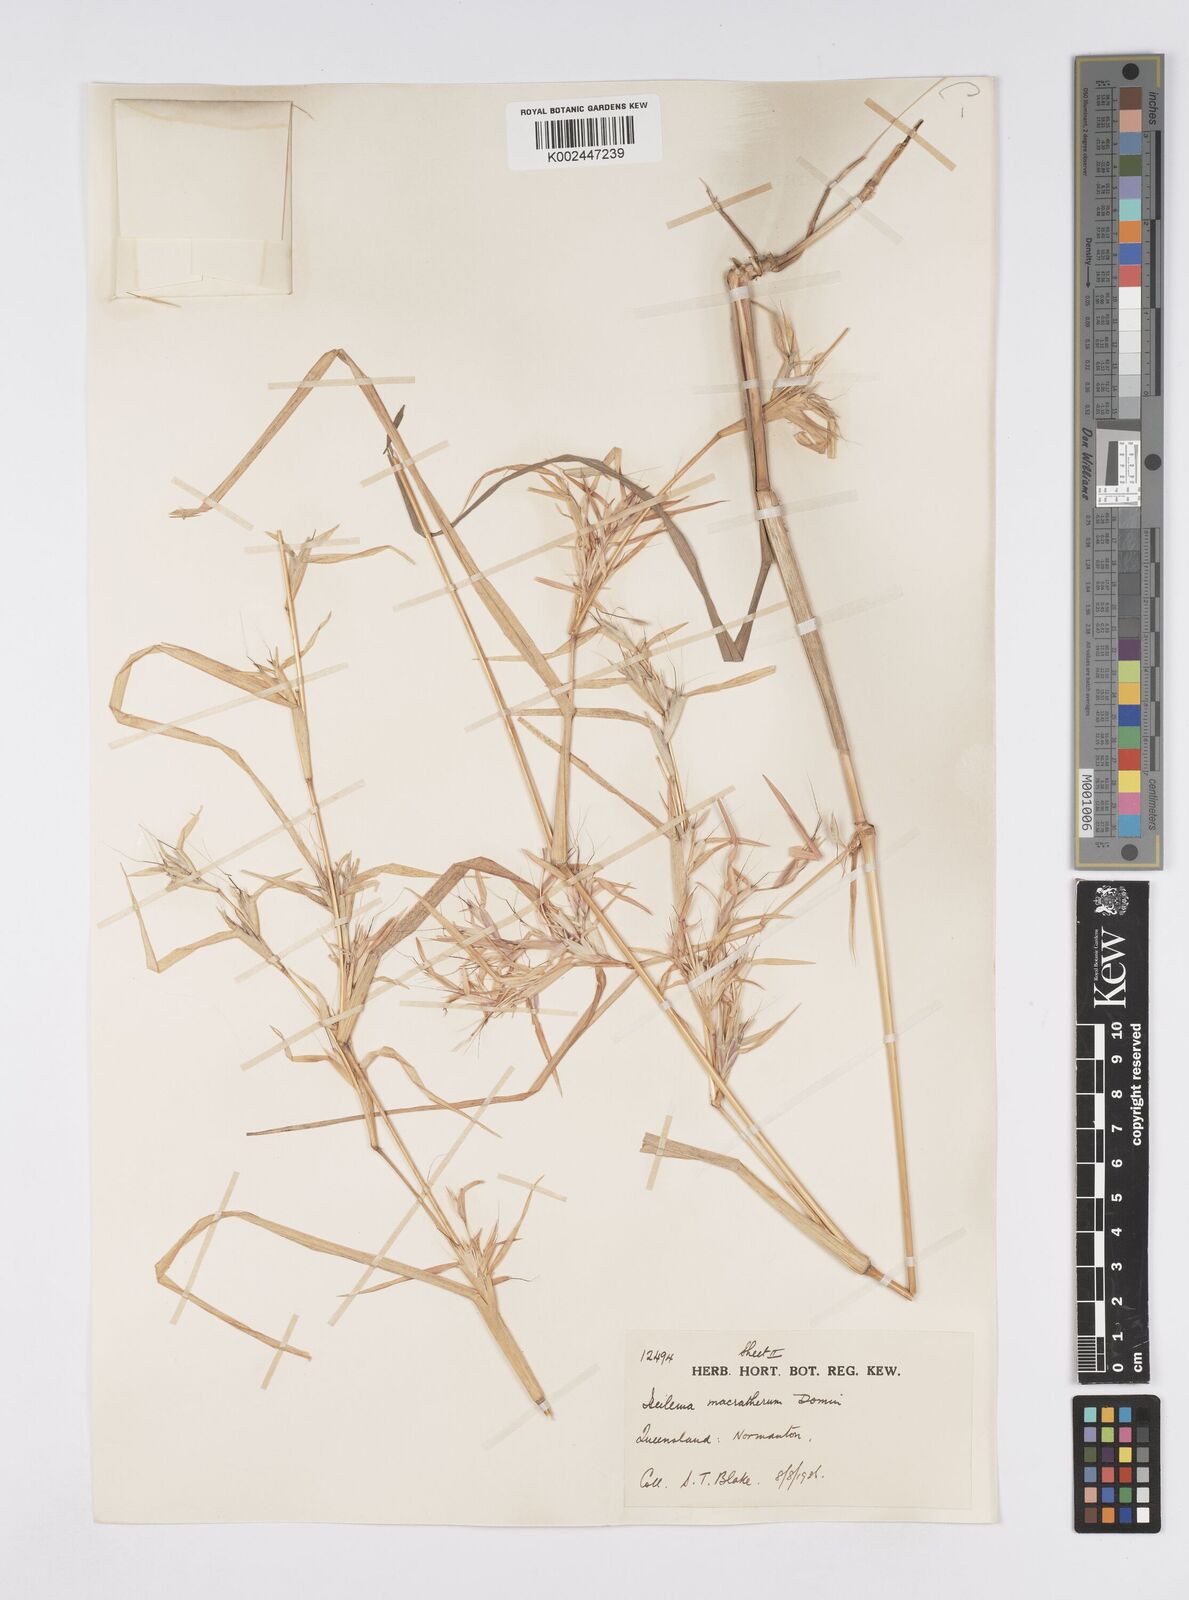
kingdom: Plantae
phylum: Tracheophyta
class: Liliopsida
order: Poales
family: Poaceae
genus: Iseilema
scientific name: Iseilema macratherum
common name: Bull flinders grass
